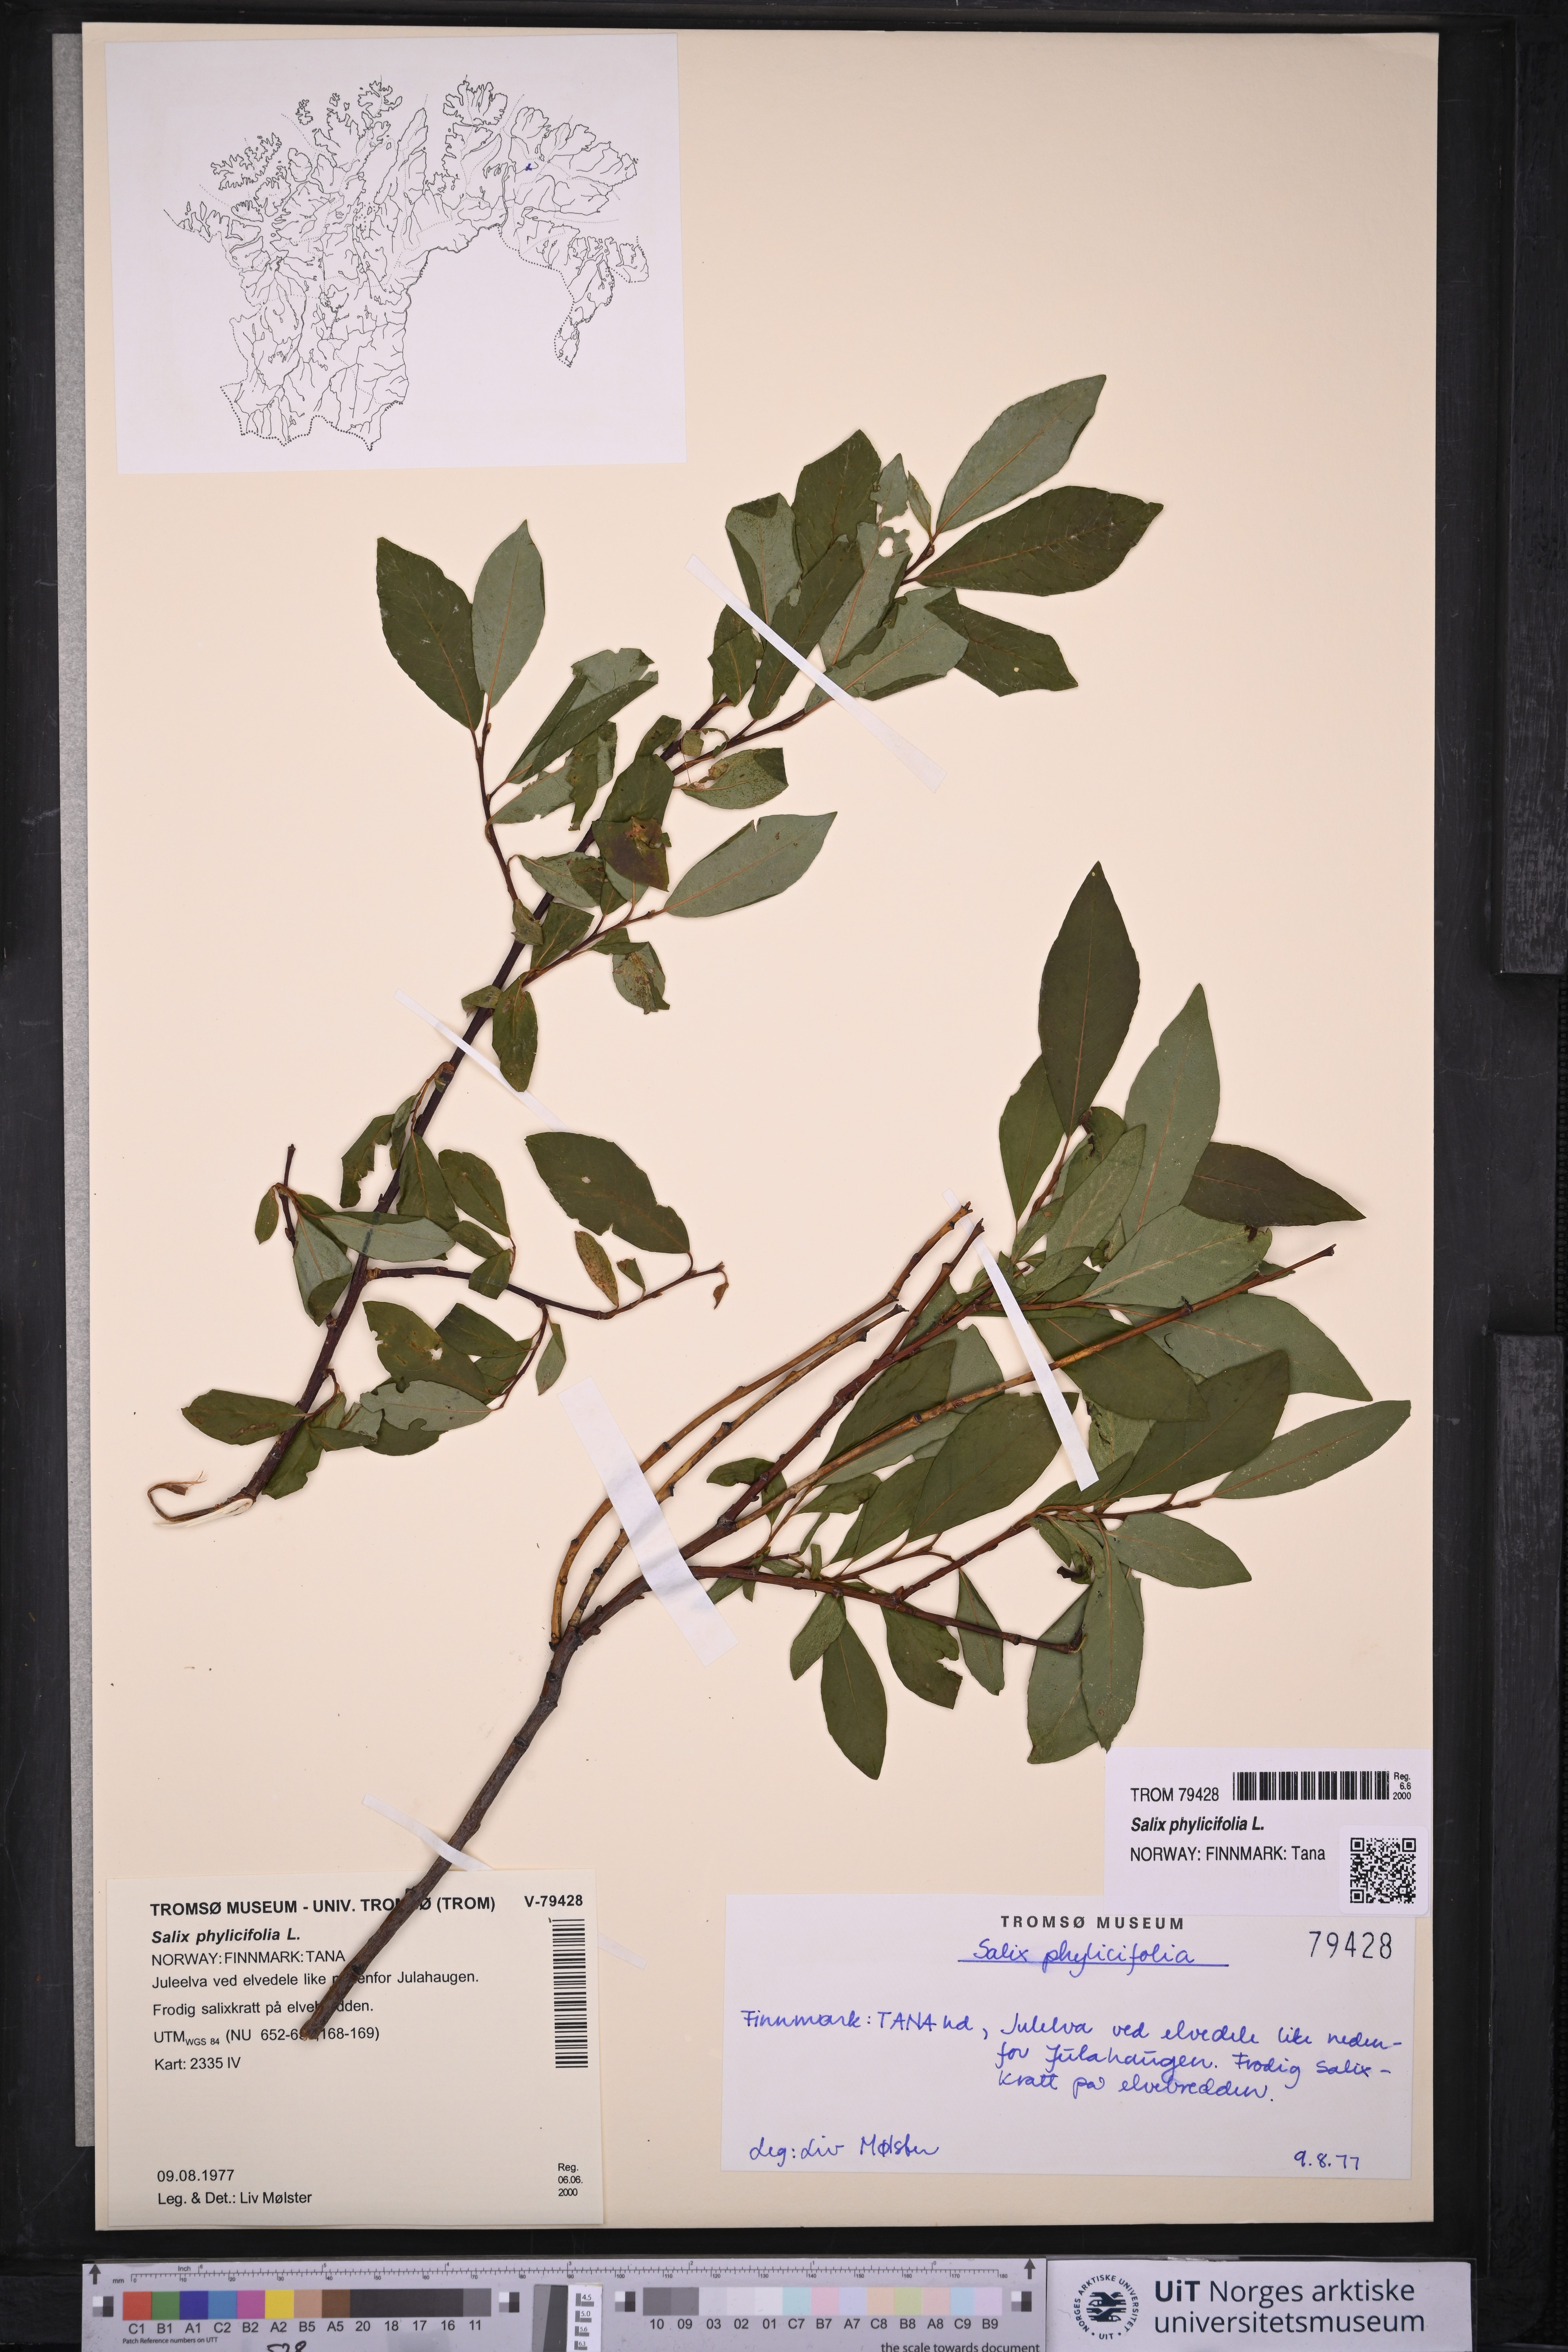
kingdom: Plantae
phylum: Tracheophyta
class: Magnoliopsida
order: Malpighiales
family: Salicaceae
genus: Salix
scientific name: Salix phylicifolia
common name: Tea-leaved willow
